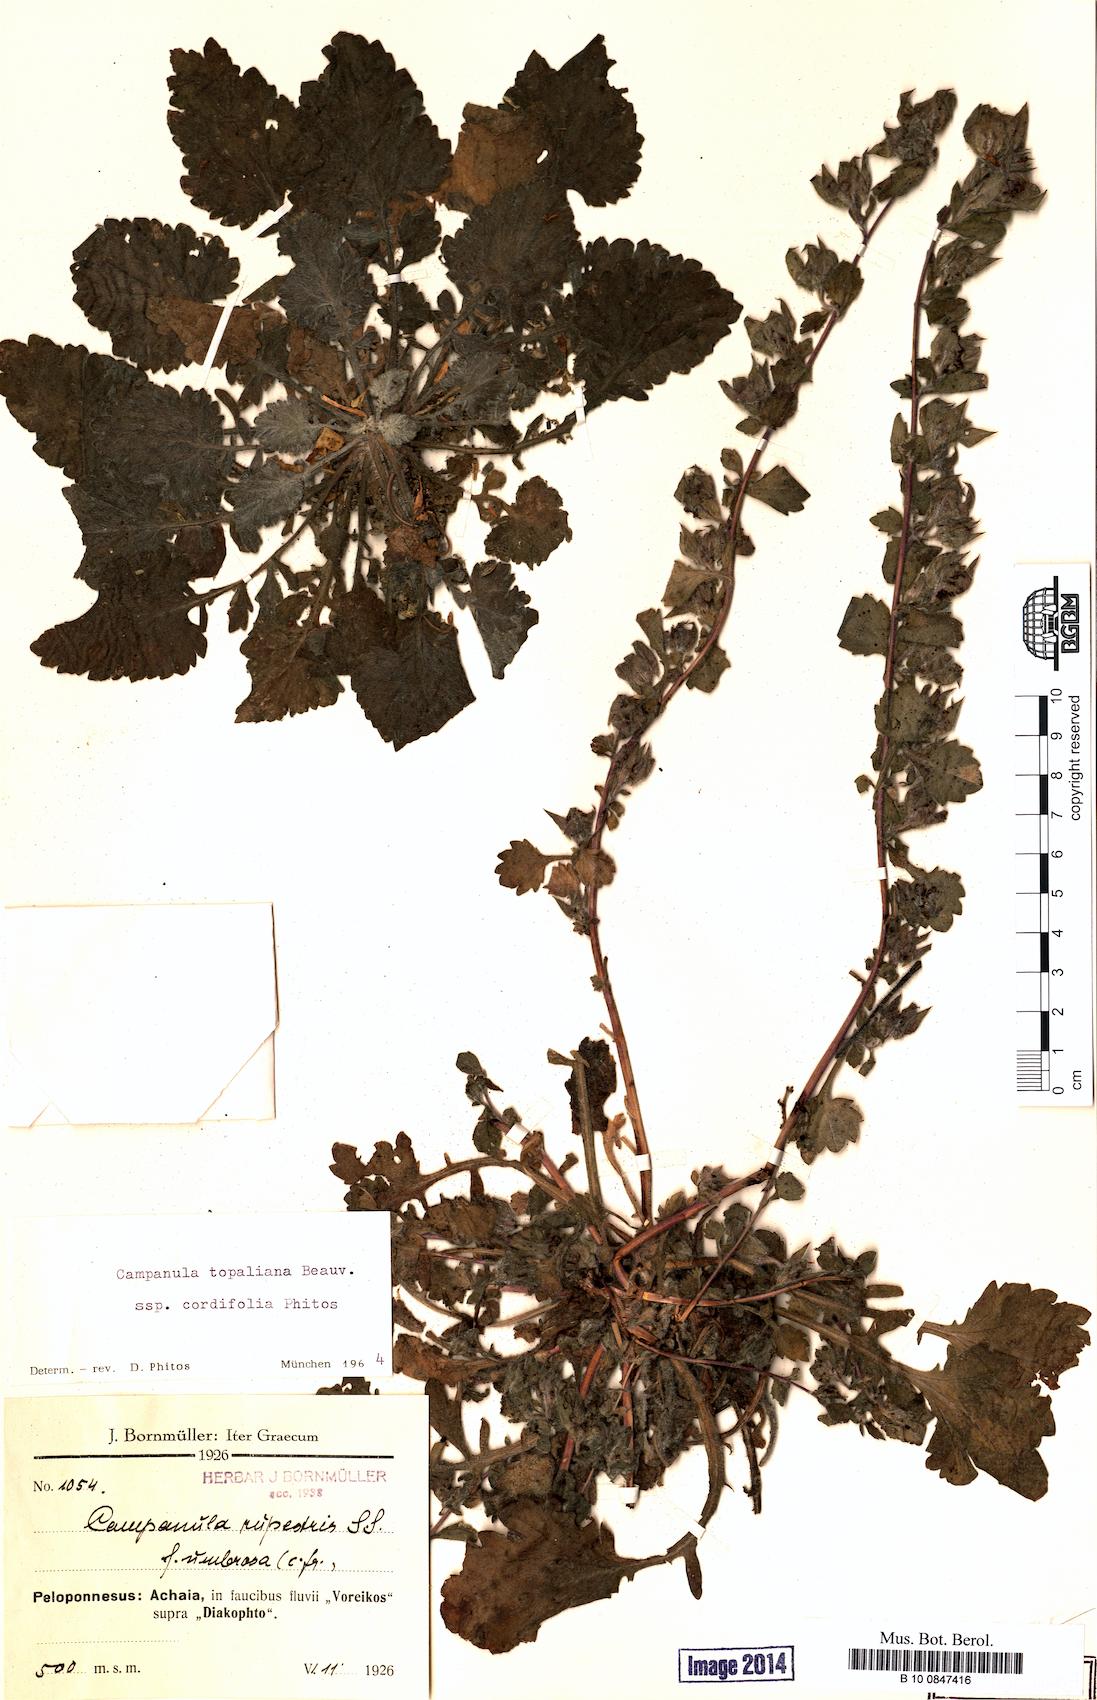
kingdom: Plantae
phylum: Tracheophyta
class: Magnoliopsida
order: Asterales
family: Campanulaceae
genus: Campanula
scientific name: Campanula topaliana
